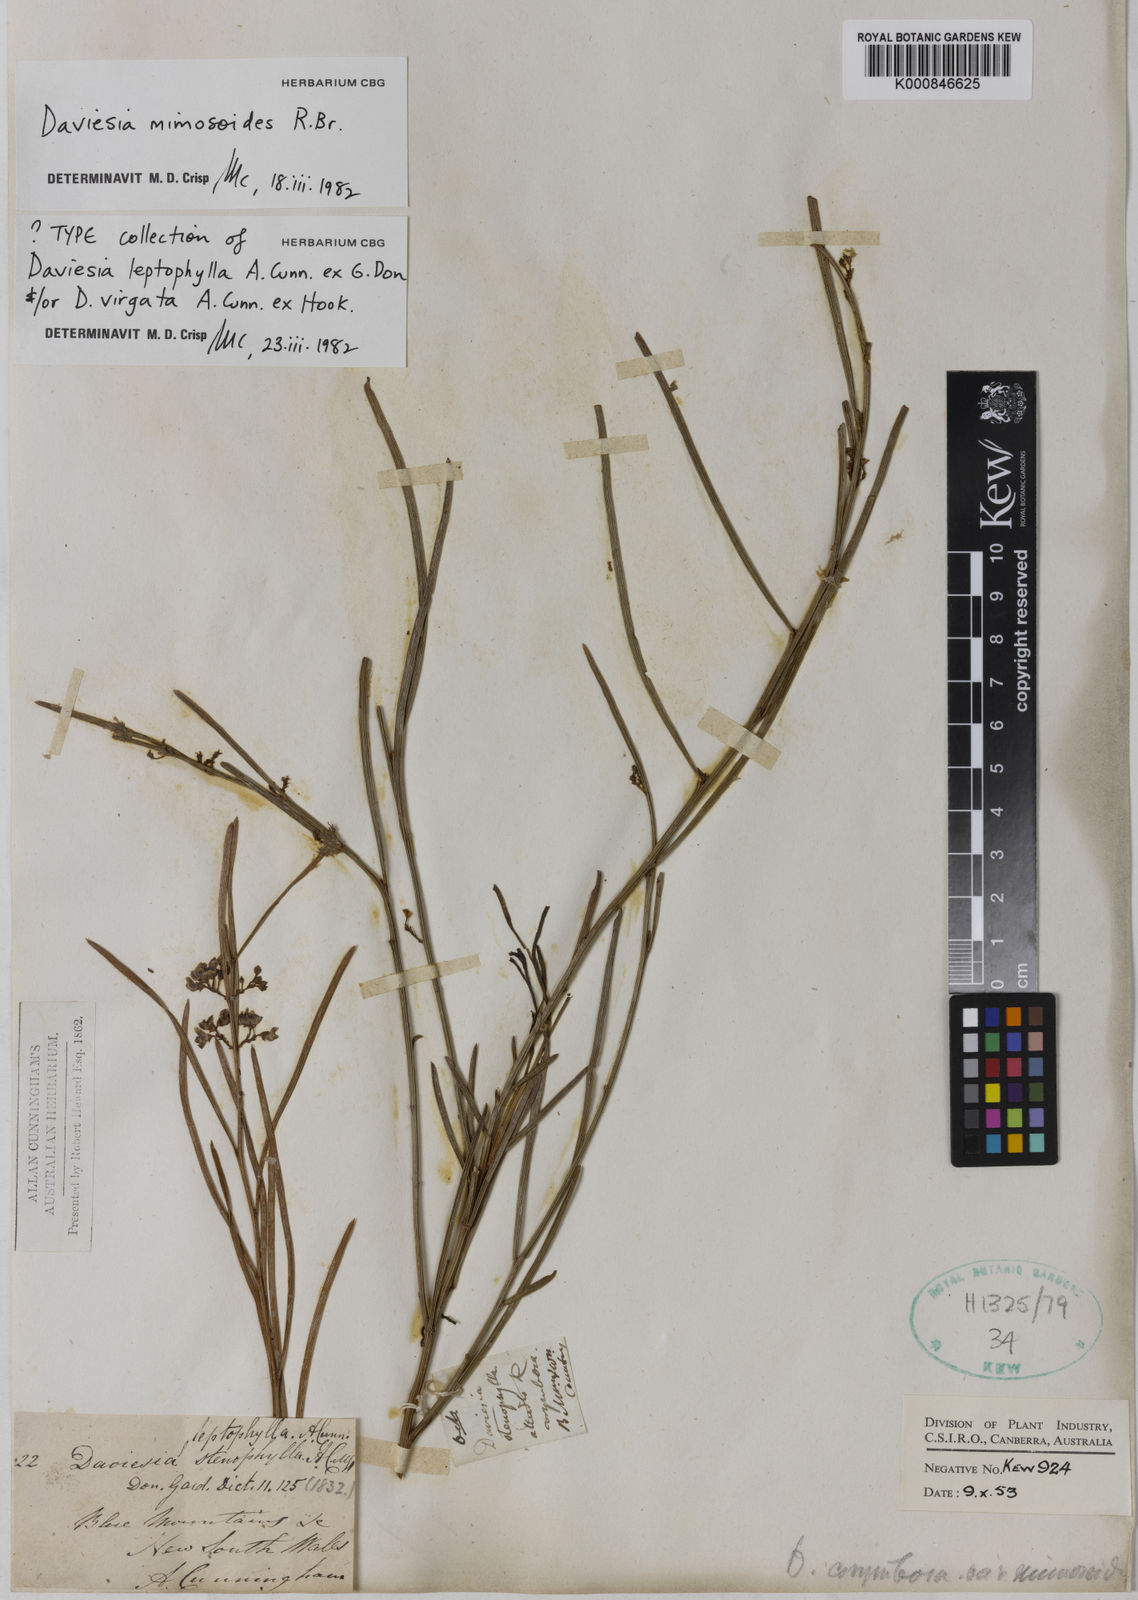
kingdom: Plantae
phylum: Tracheophyta
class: Magnoliopsida
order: Fabales
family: Fabaceae
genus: Daviesia
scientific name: Daviesia mimosoides
